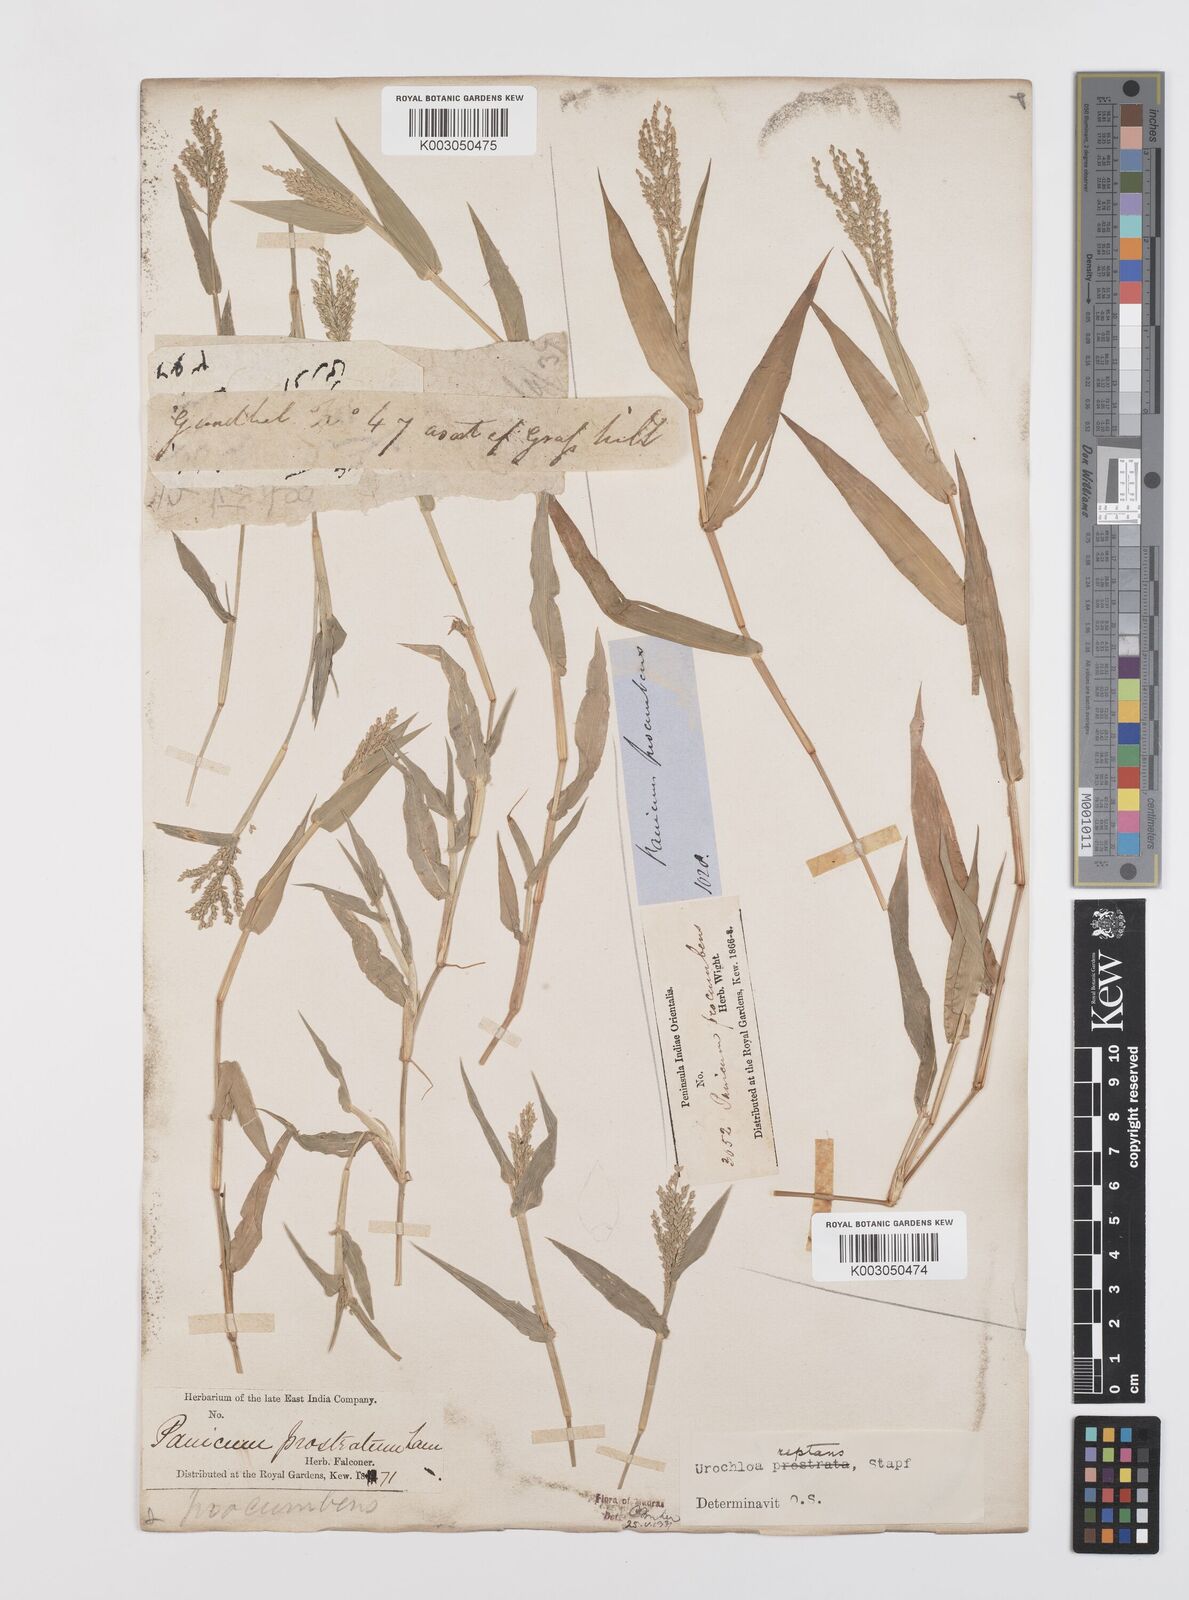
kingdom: Plantae
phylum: Tracheophyta
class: Liliopsida
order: Poales
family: Poaceae
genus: Urochloa
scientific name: Urochloa reptans
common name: Sprawling signalgrass
